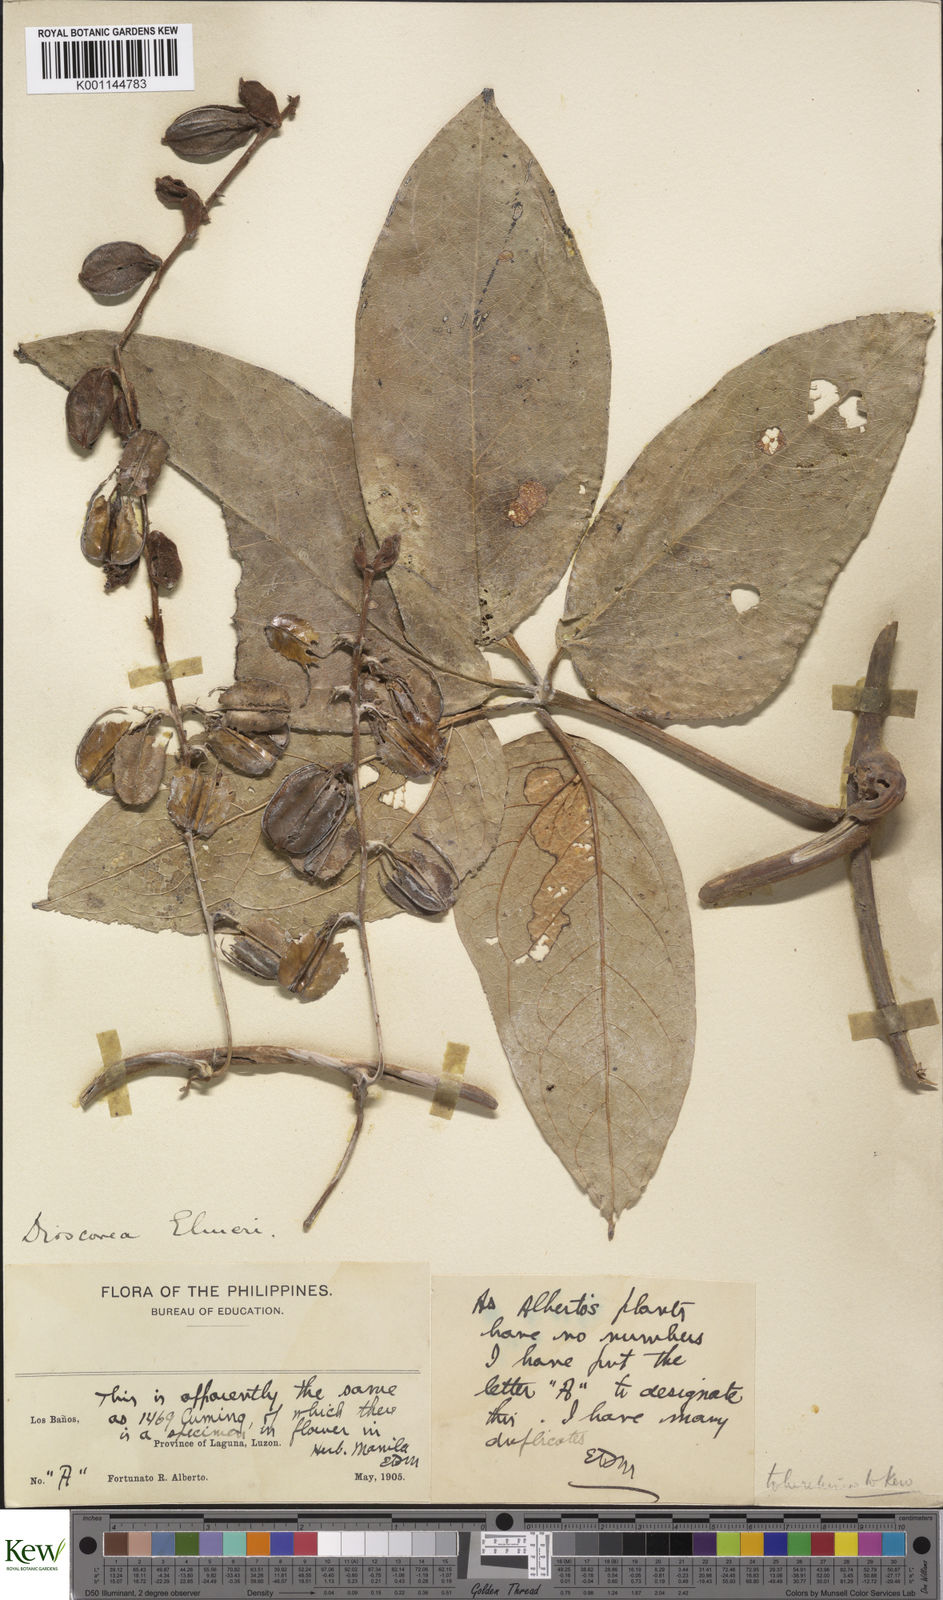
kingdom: Plantae
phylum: Tracheophyta
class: Liliopsida
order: Dioscoreales
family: Dioscoreaceae
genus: Dioscorea
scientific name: Dioscorea cumingii
